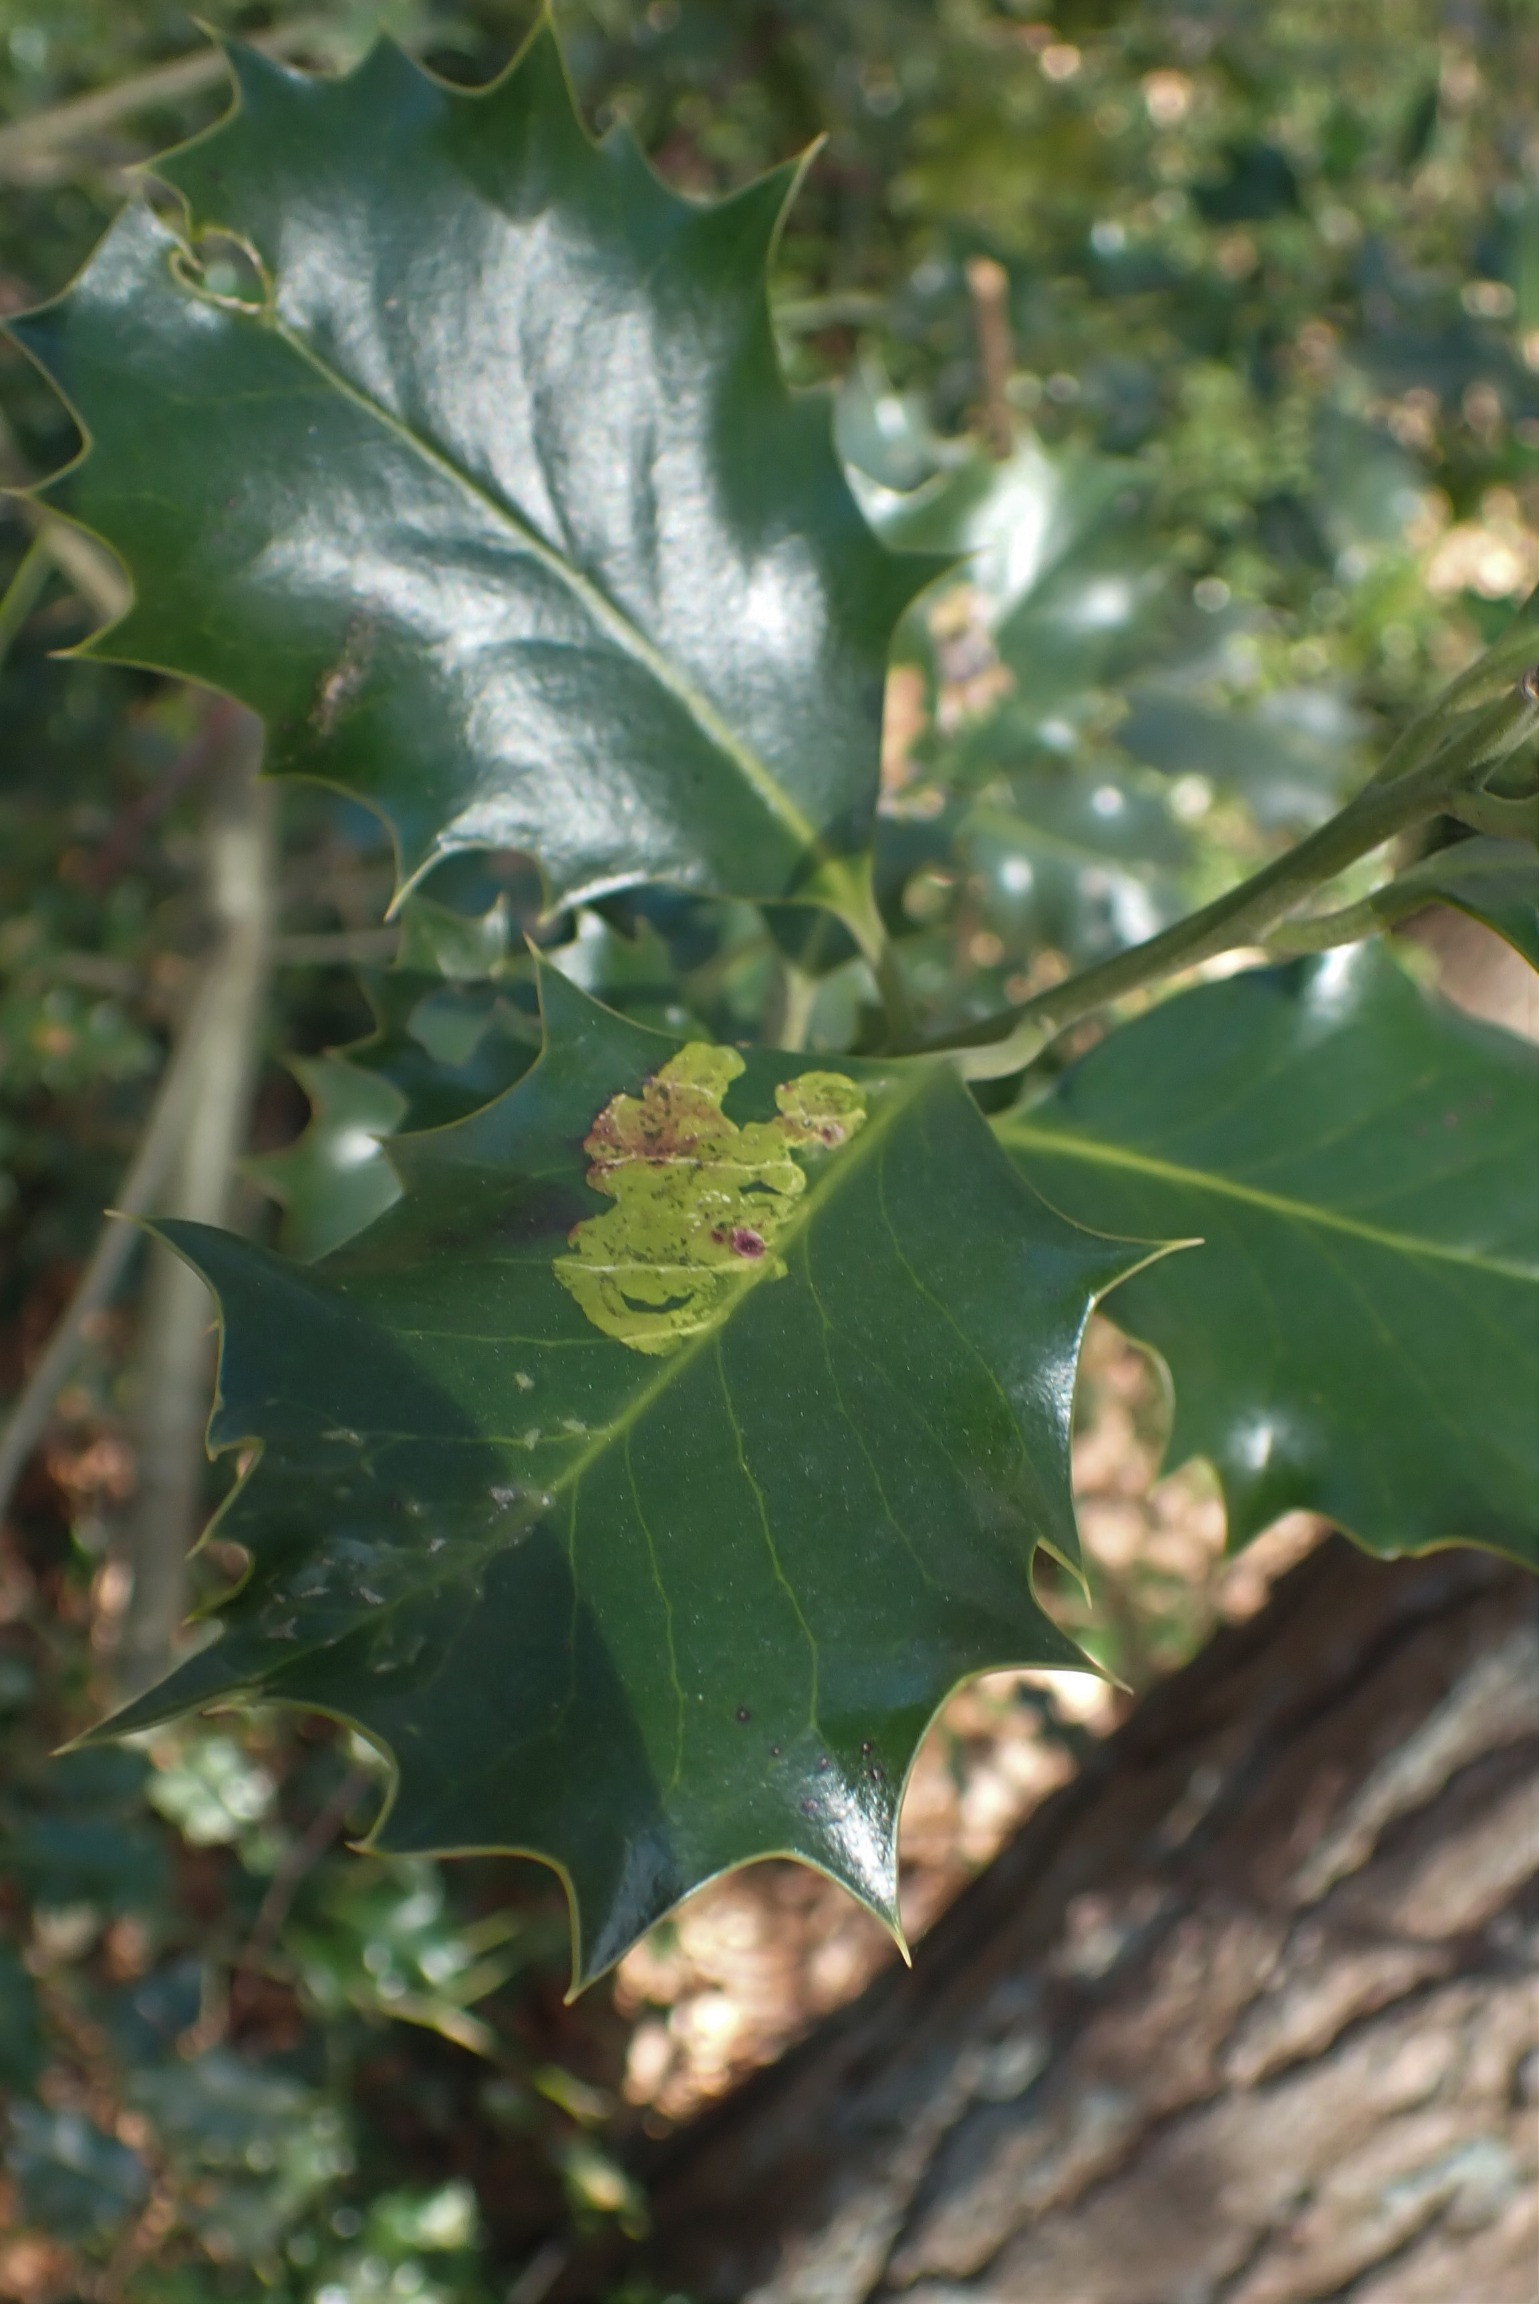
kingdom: Animalia
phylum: Arthropoda
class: Insecta
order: Diptera
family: Agromyzidae
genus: Phytomyza
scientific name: Phytomyza ilicis
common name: Kristtornminérflue
